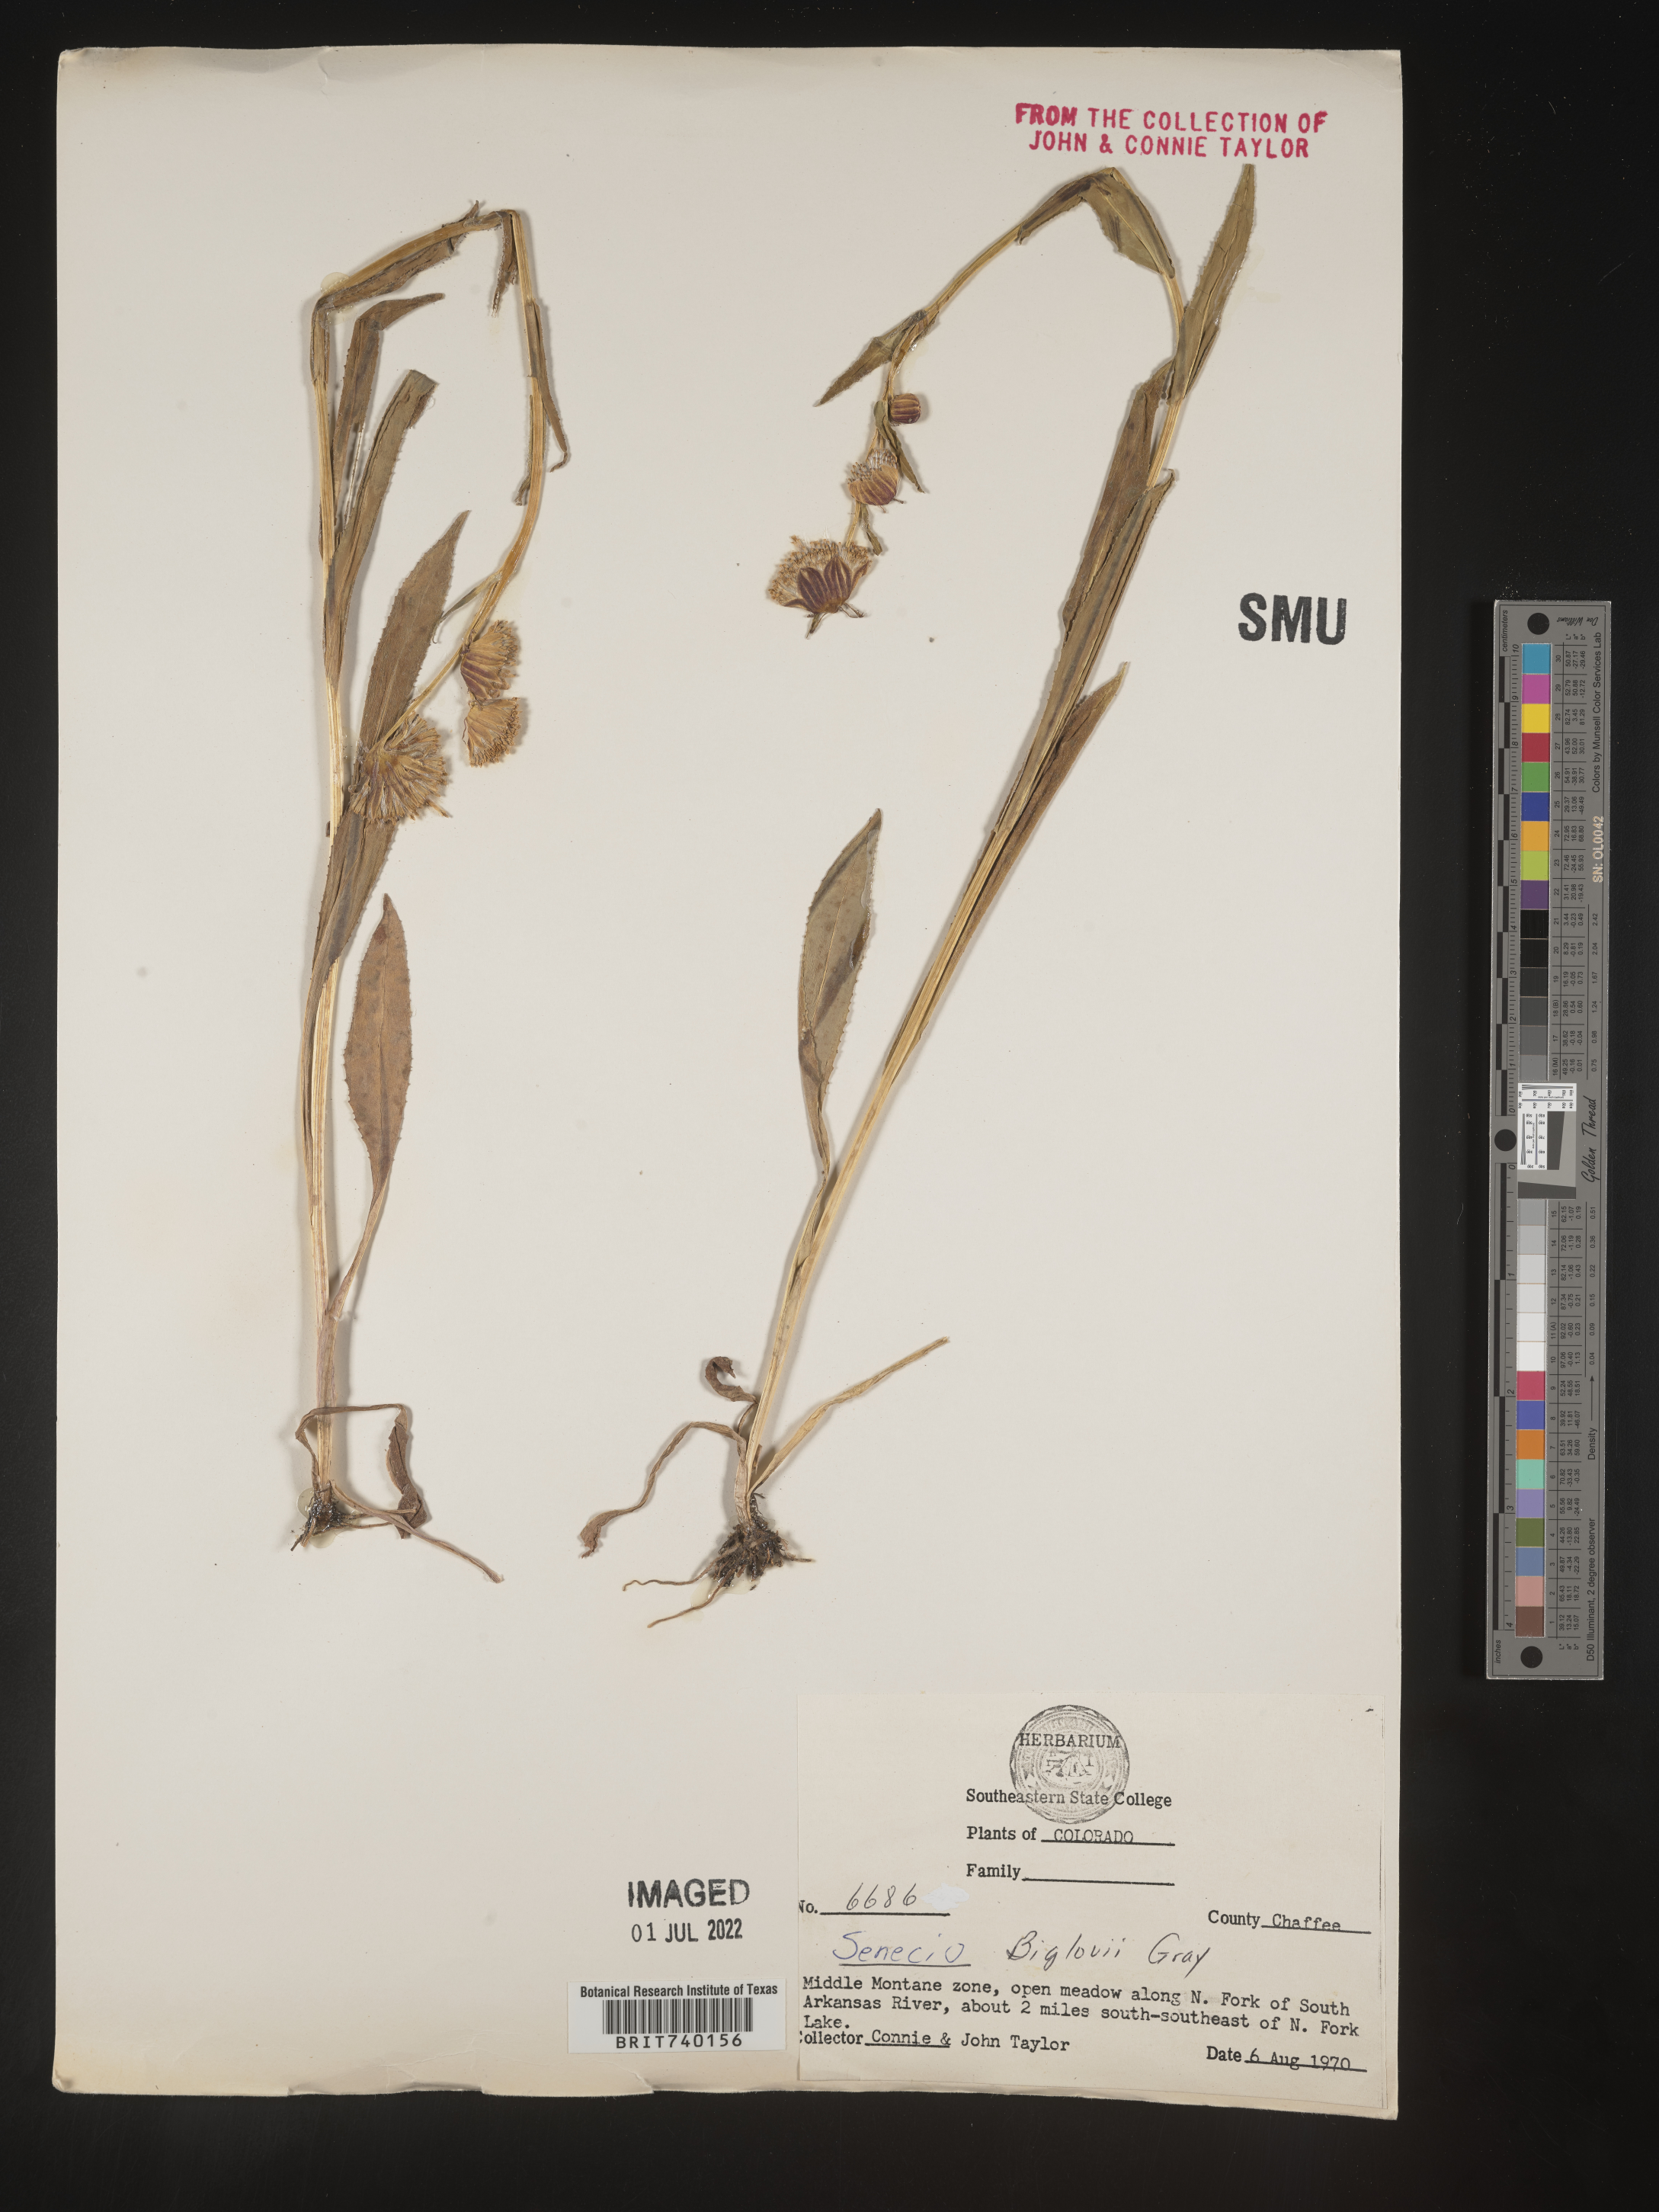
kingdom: Plantae
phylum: Tracheophyta
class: Magnoliopsida
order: Asterales
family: Asteraceae
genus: Senecio
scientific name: Senecio bigelovii
